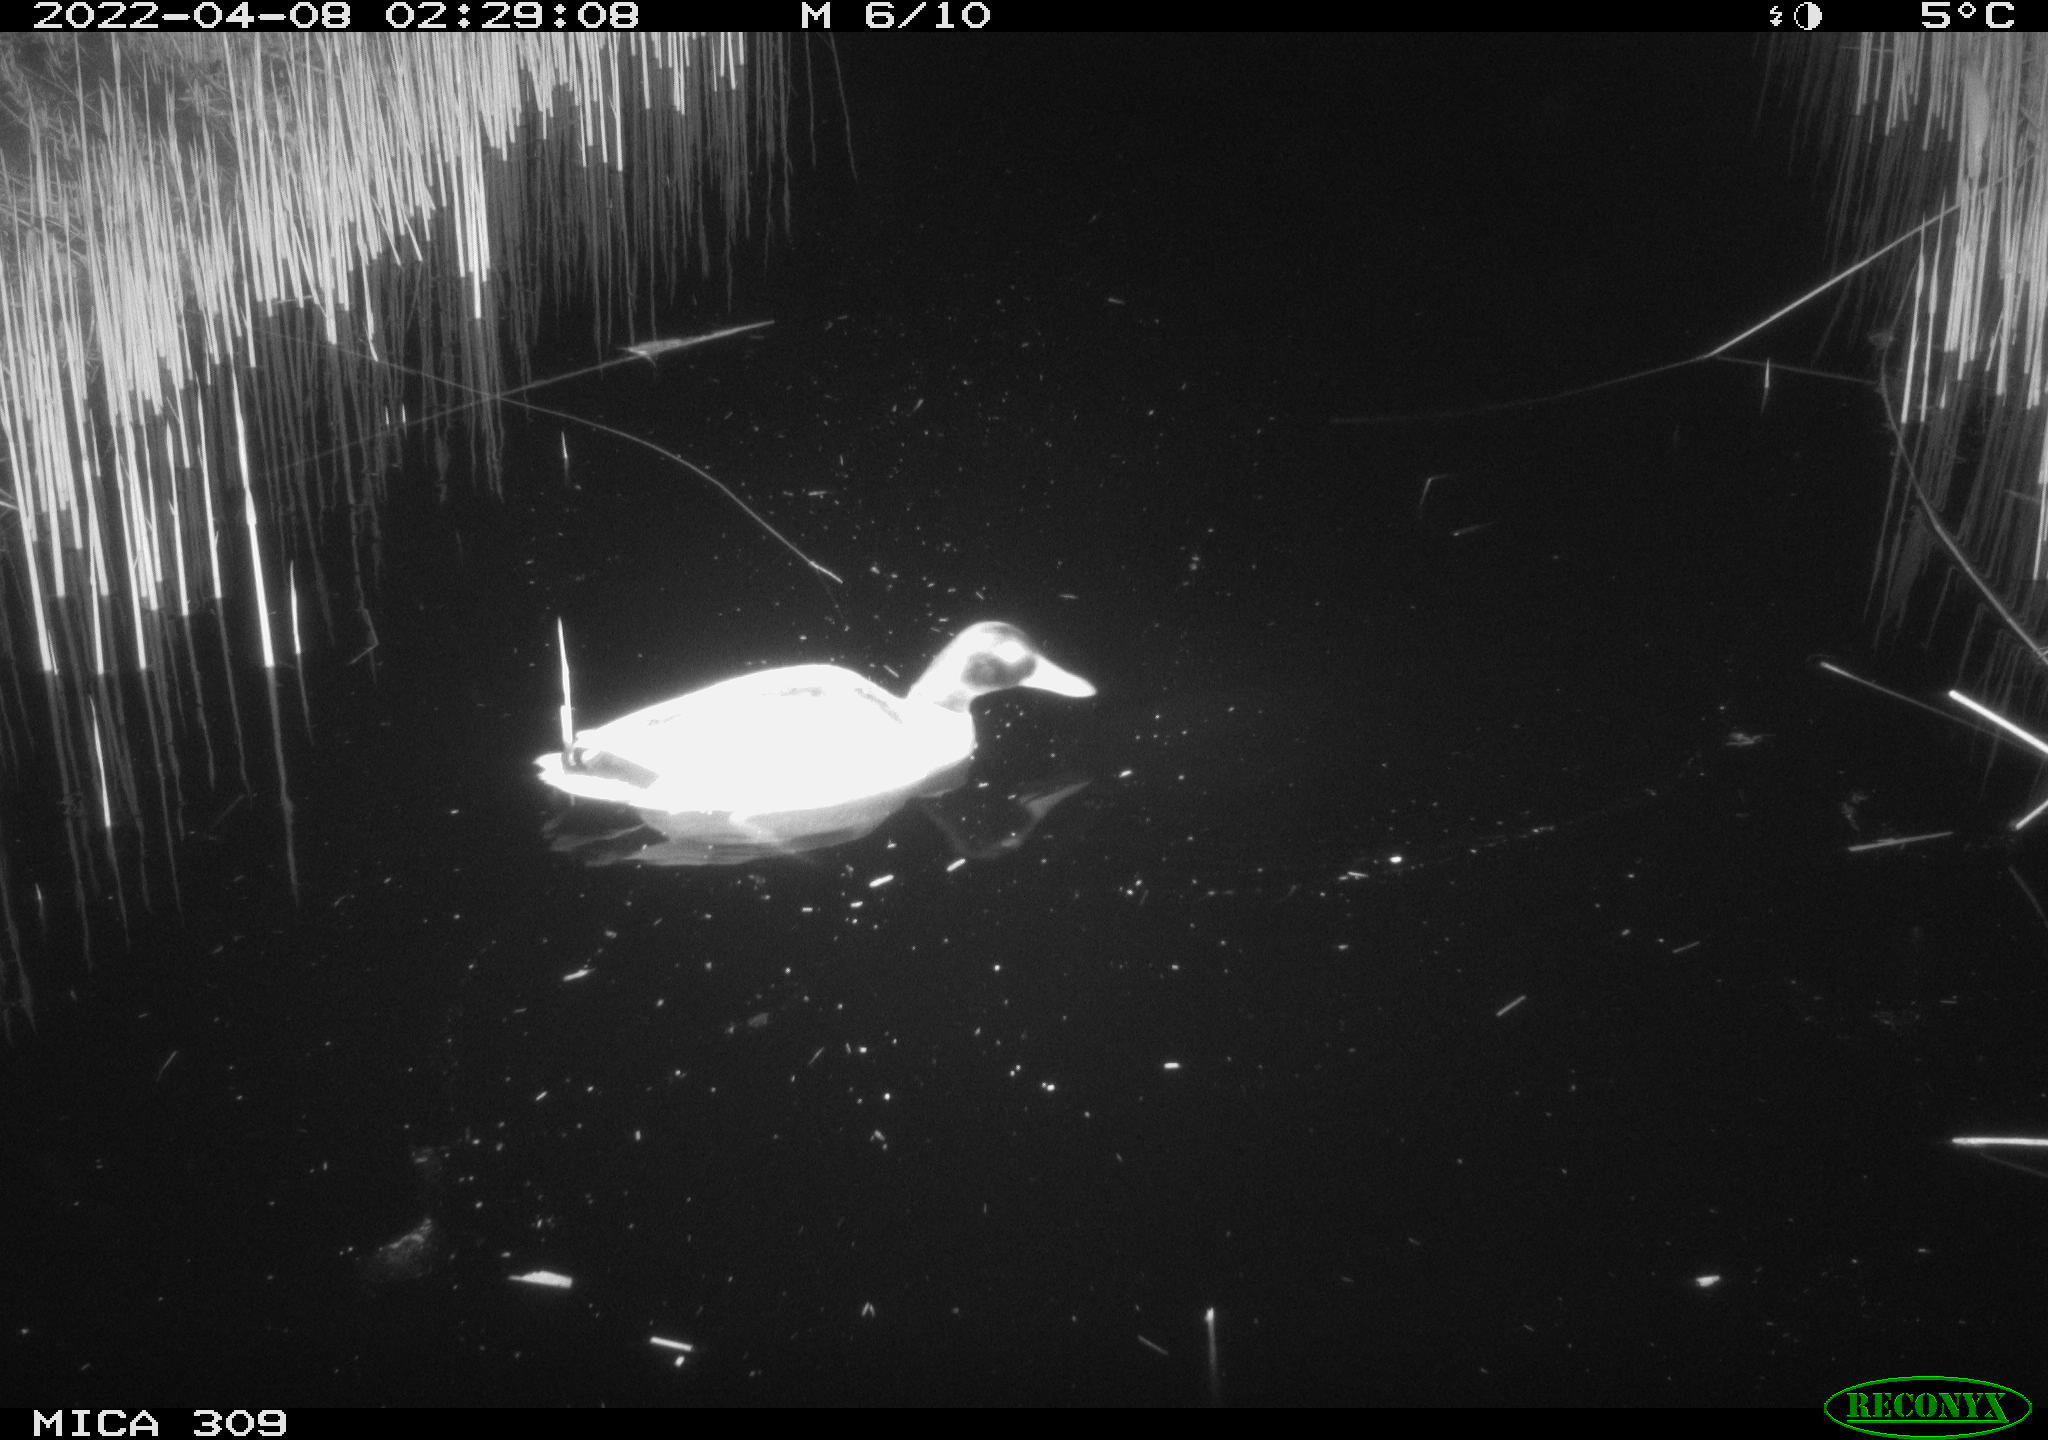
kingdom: Animalia
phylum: Chordata
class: Aves
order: Anseriformes
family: Anatidae
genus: Anas
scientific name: Anas platyrhynchos
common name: Mallard
